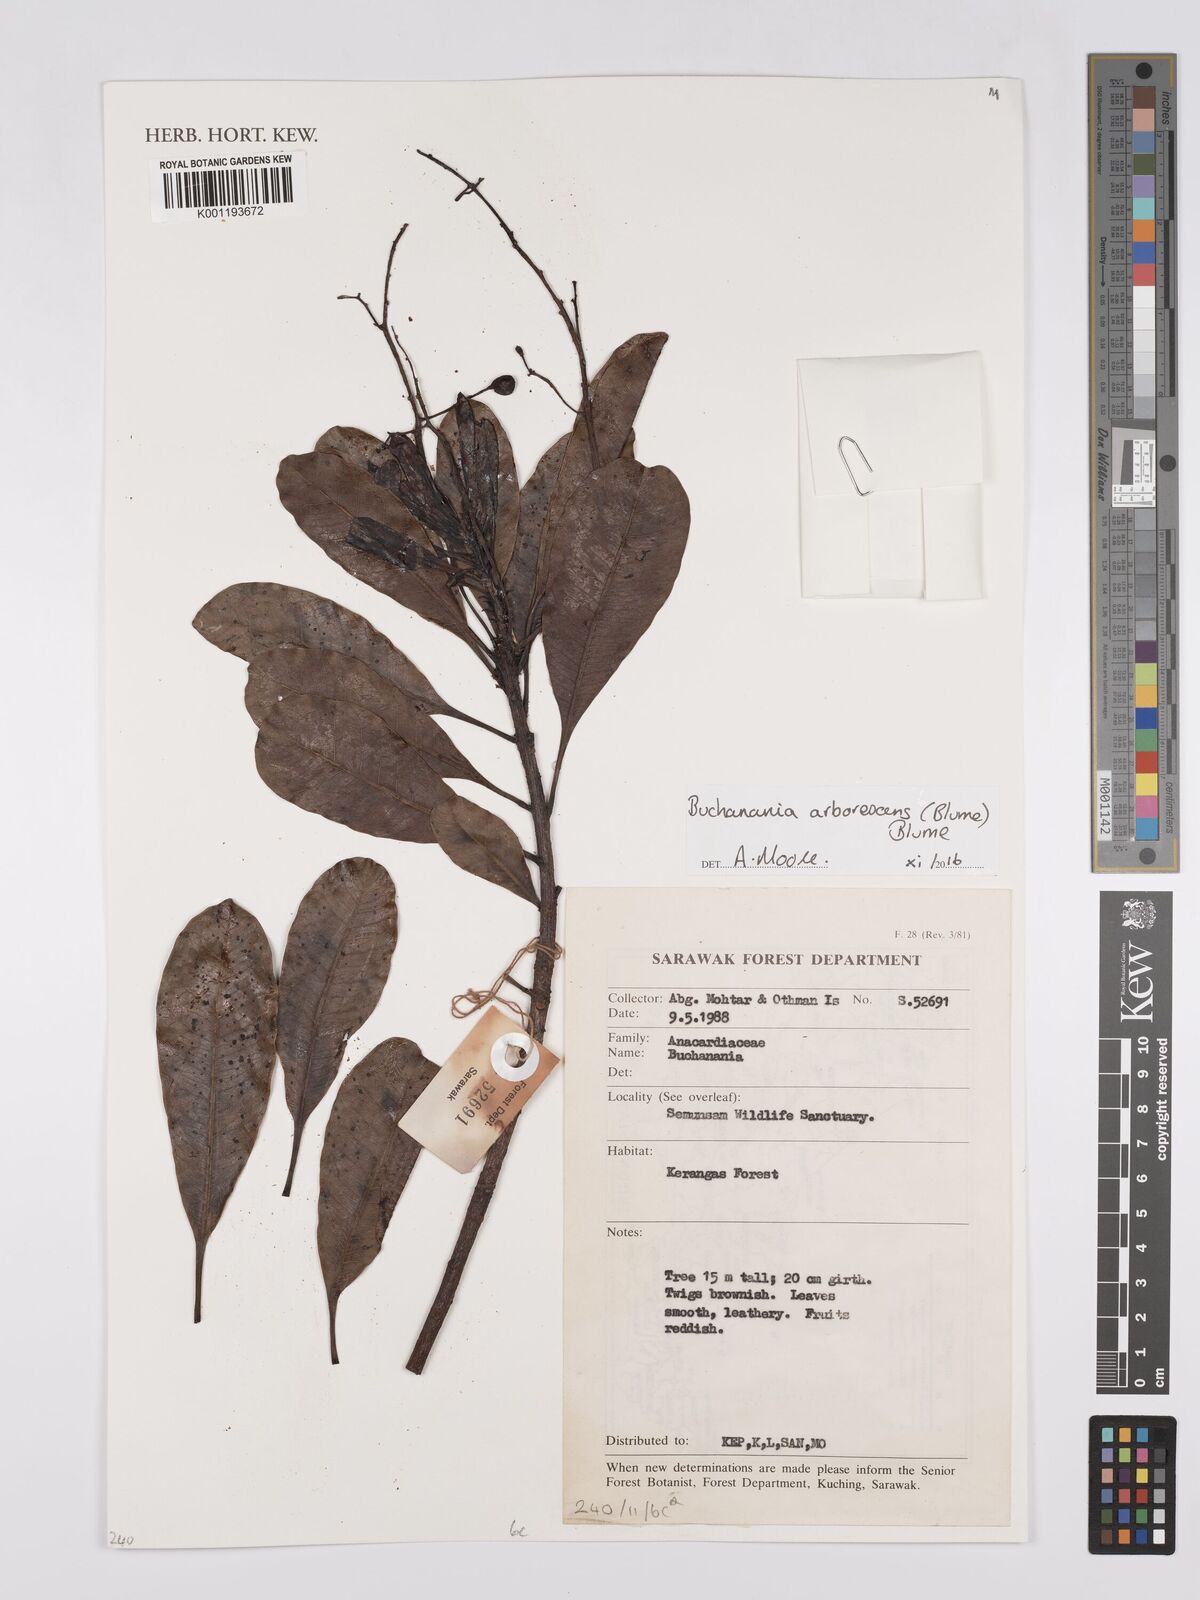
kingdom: Plantae
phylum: Tracheophyta
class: Magnoliopsida
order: Sapindales
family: Anacardiaceae
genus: Buchanania
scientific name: Buchanania arborescens
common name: Sparrow’s mango
